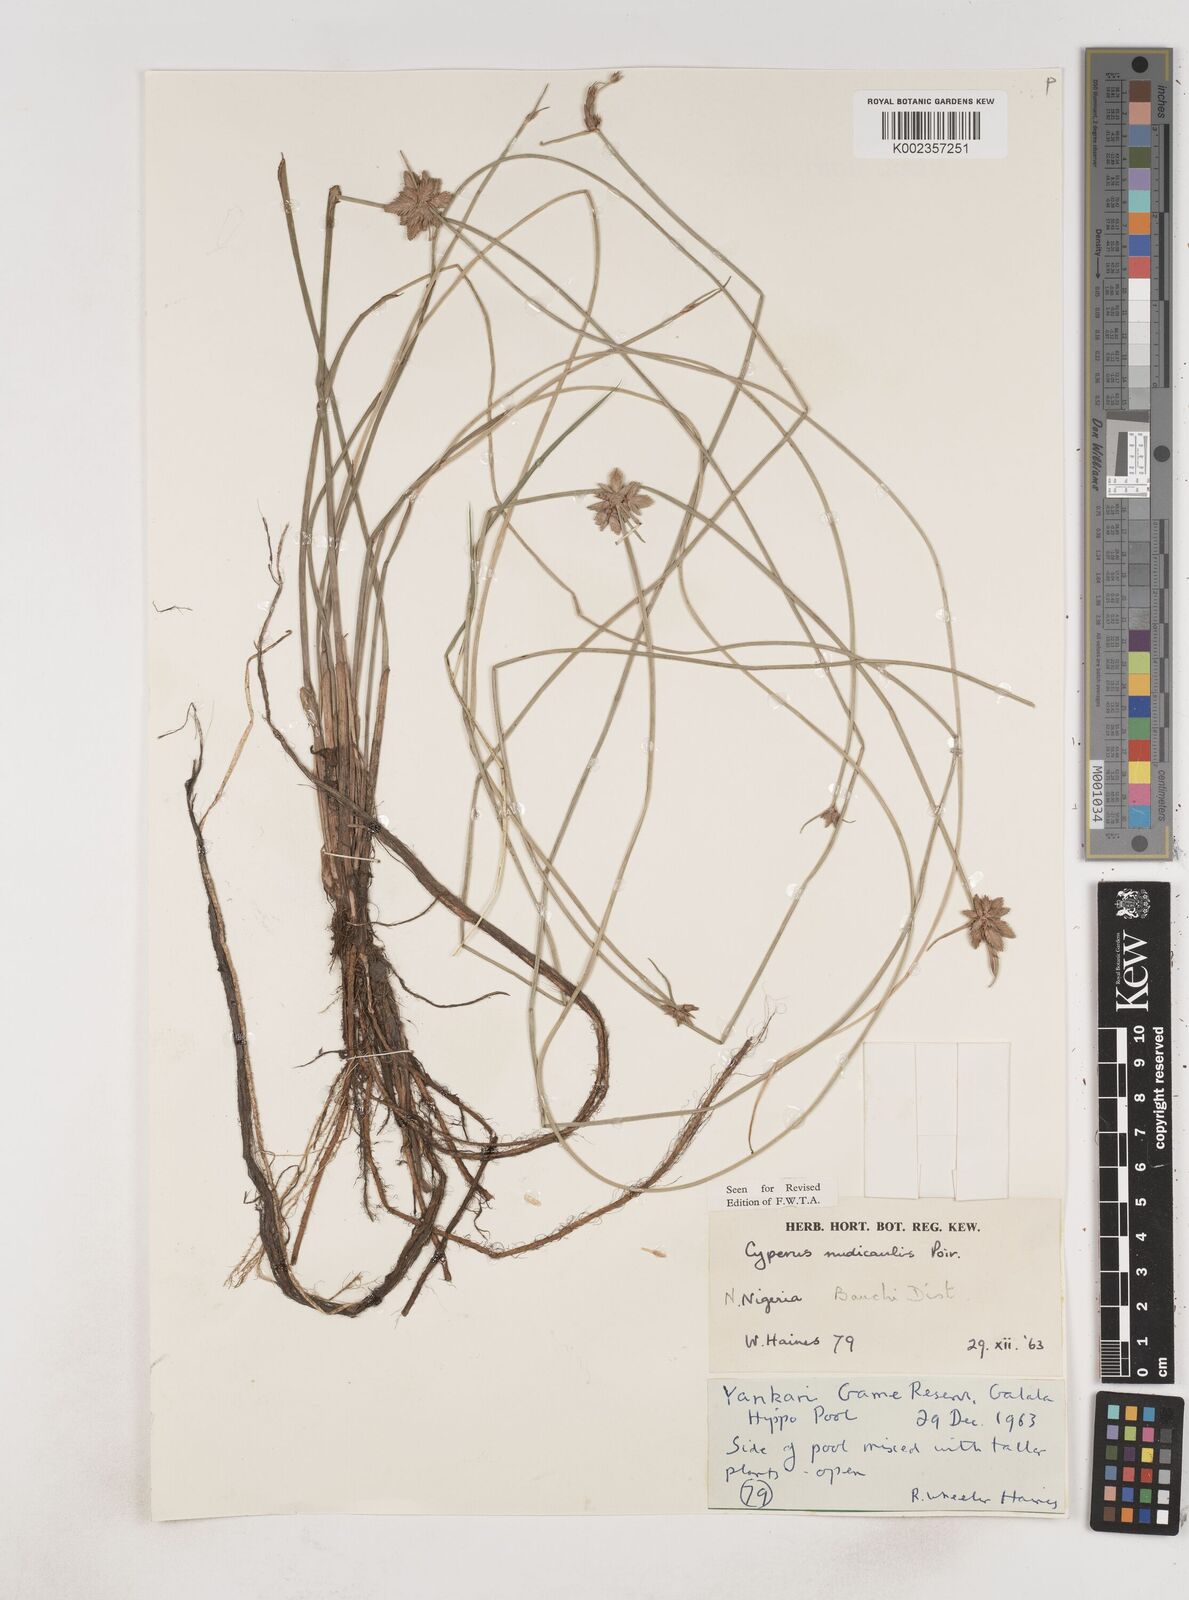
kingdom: Plantae
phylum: Tracheophyta
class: Liliopsida
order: Poales
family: Cyperaceae
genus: Cyperus
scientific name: Cyperus pectinatus
